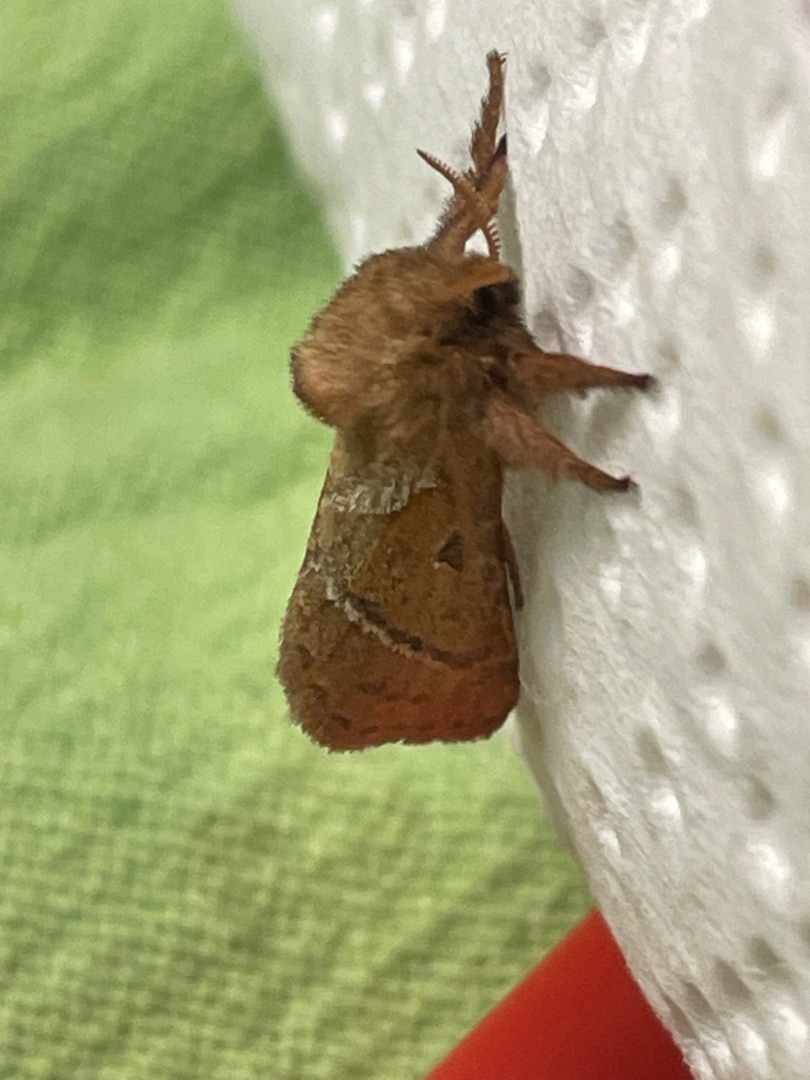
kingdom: Animalia
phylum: Arthropoda
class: Insecta
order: Lepidoptera
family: Hepialidae
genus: Triodia
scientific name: Triodia sylvina
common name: Skræpperodæder
